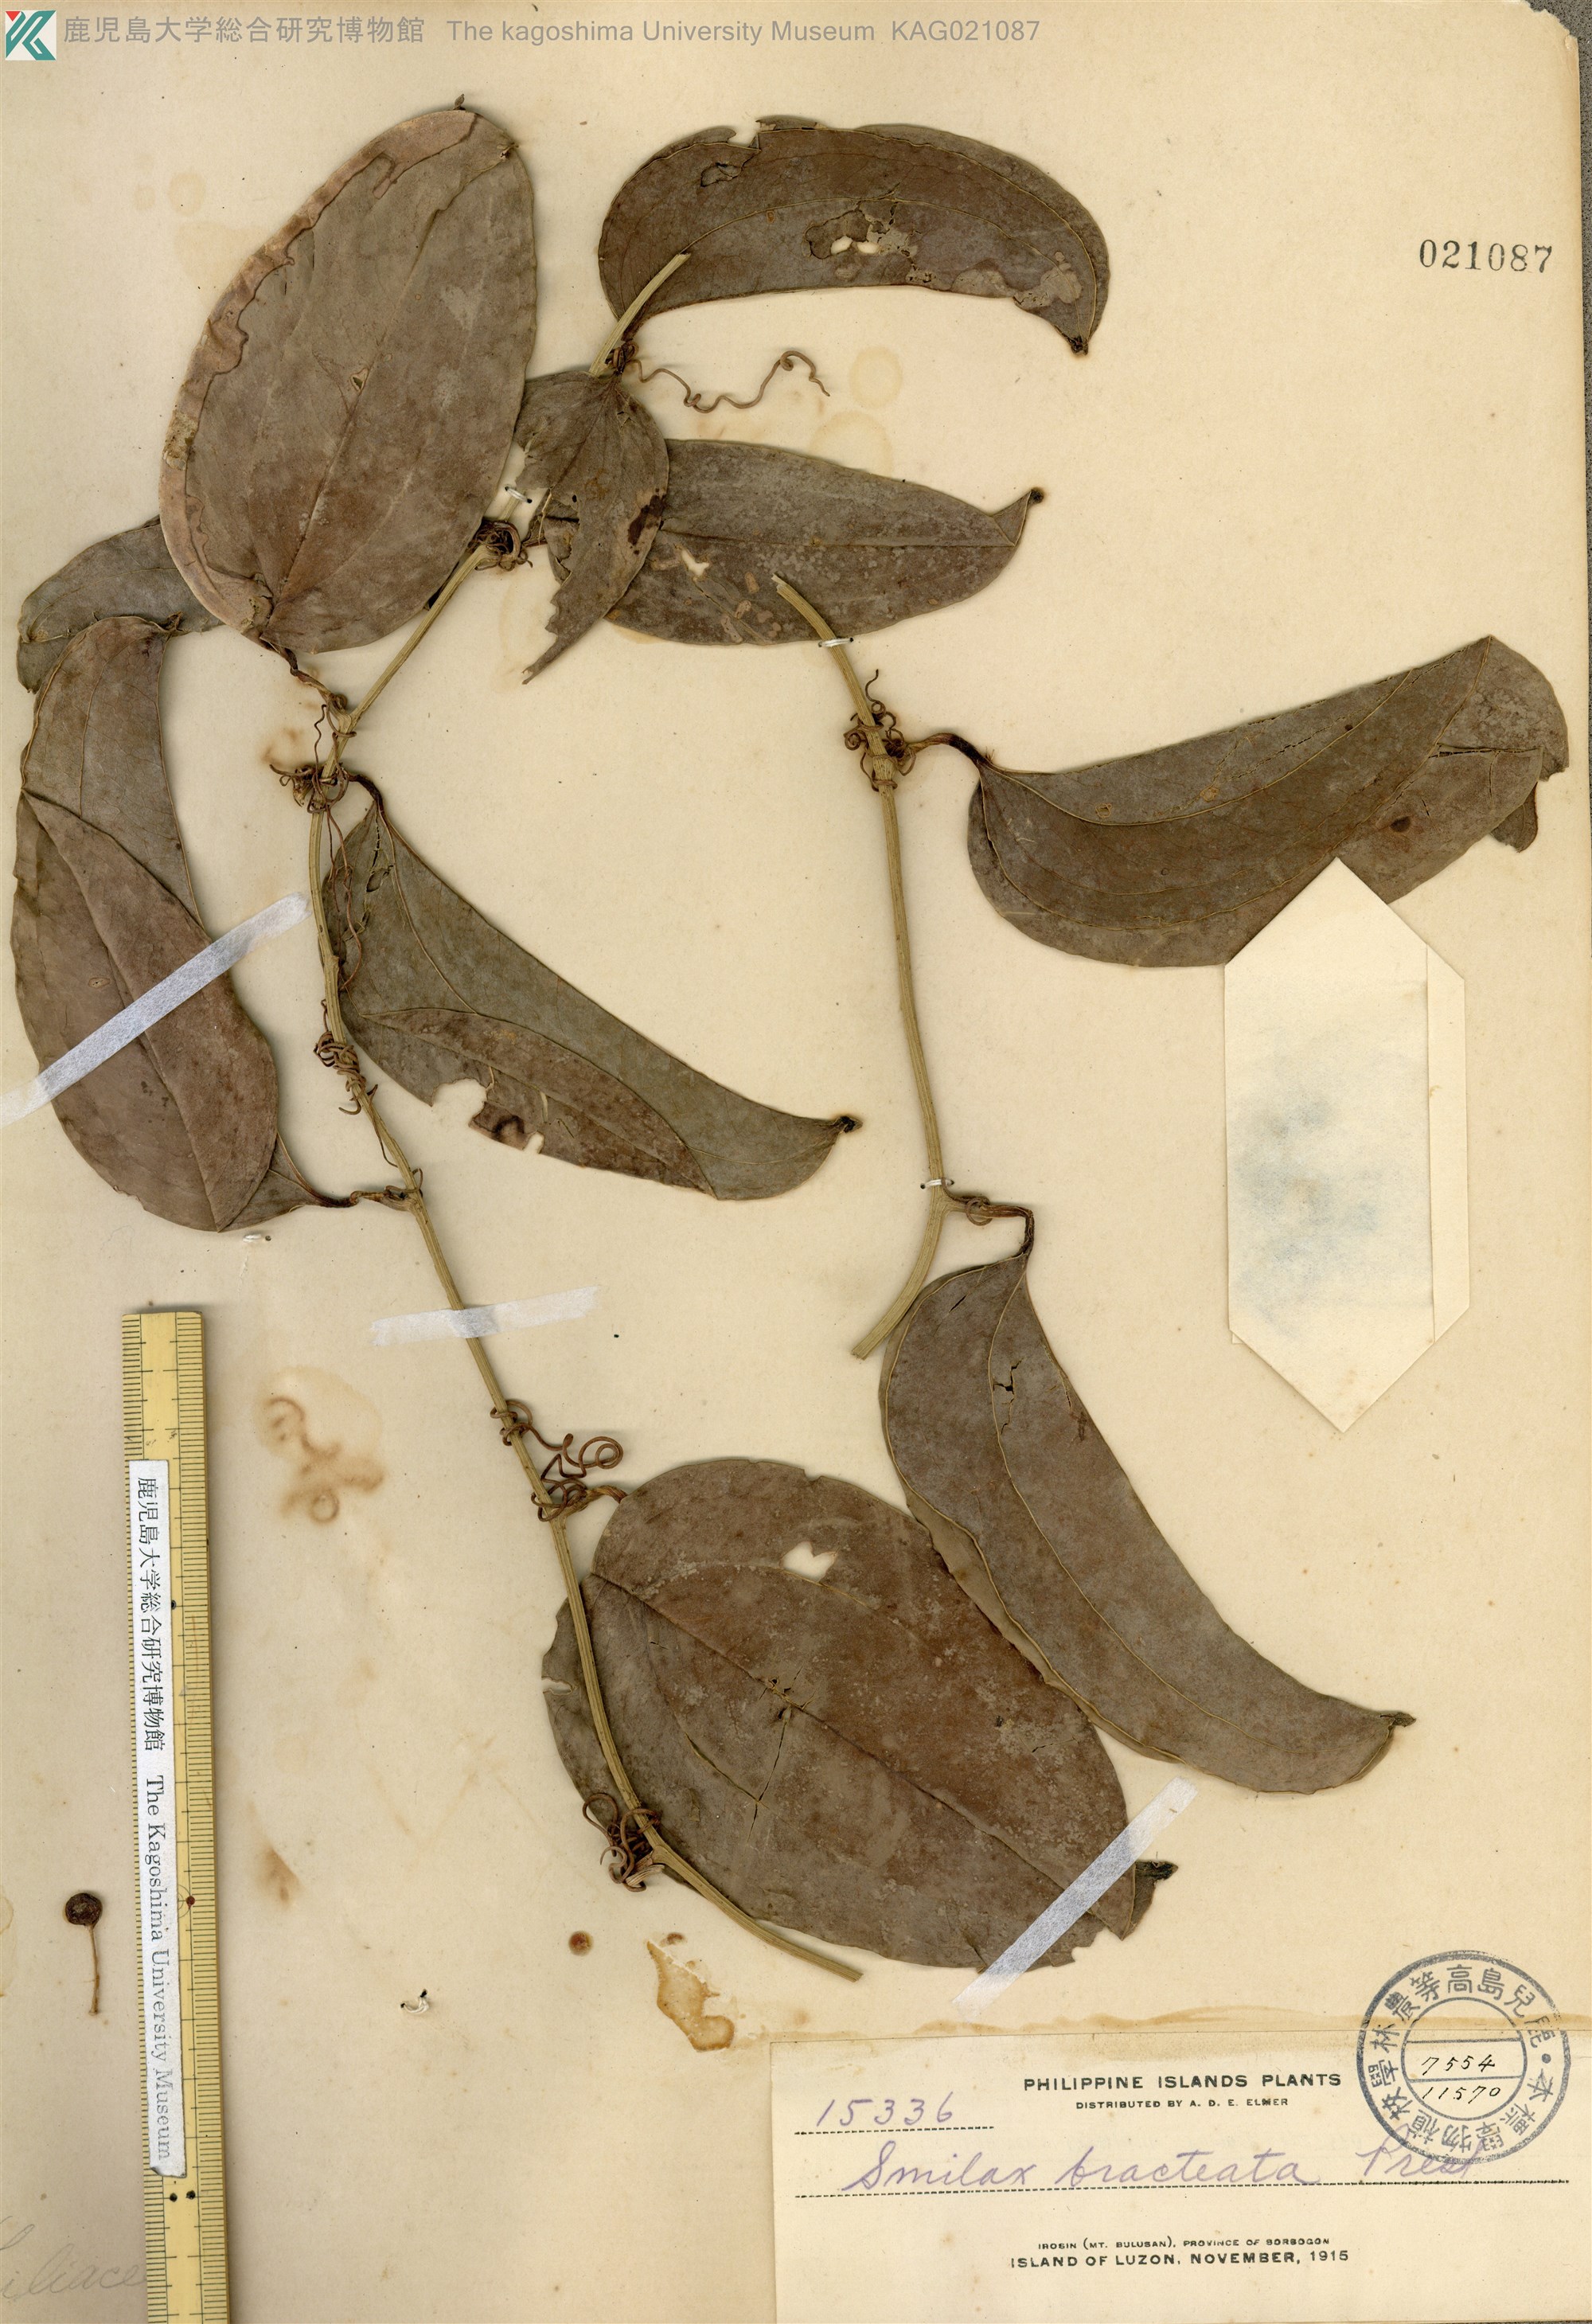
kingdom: Plantae
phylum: Tracheophyta
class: Liliopsida
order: Liliales
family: Smilacaceae
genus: Smilax
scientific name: Smilax bracteata
